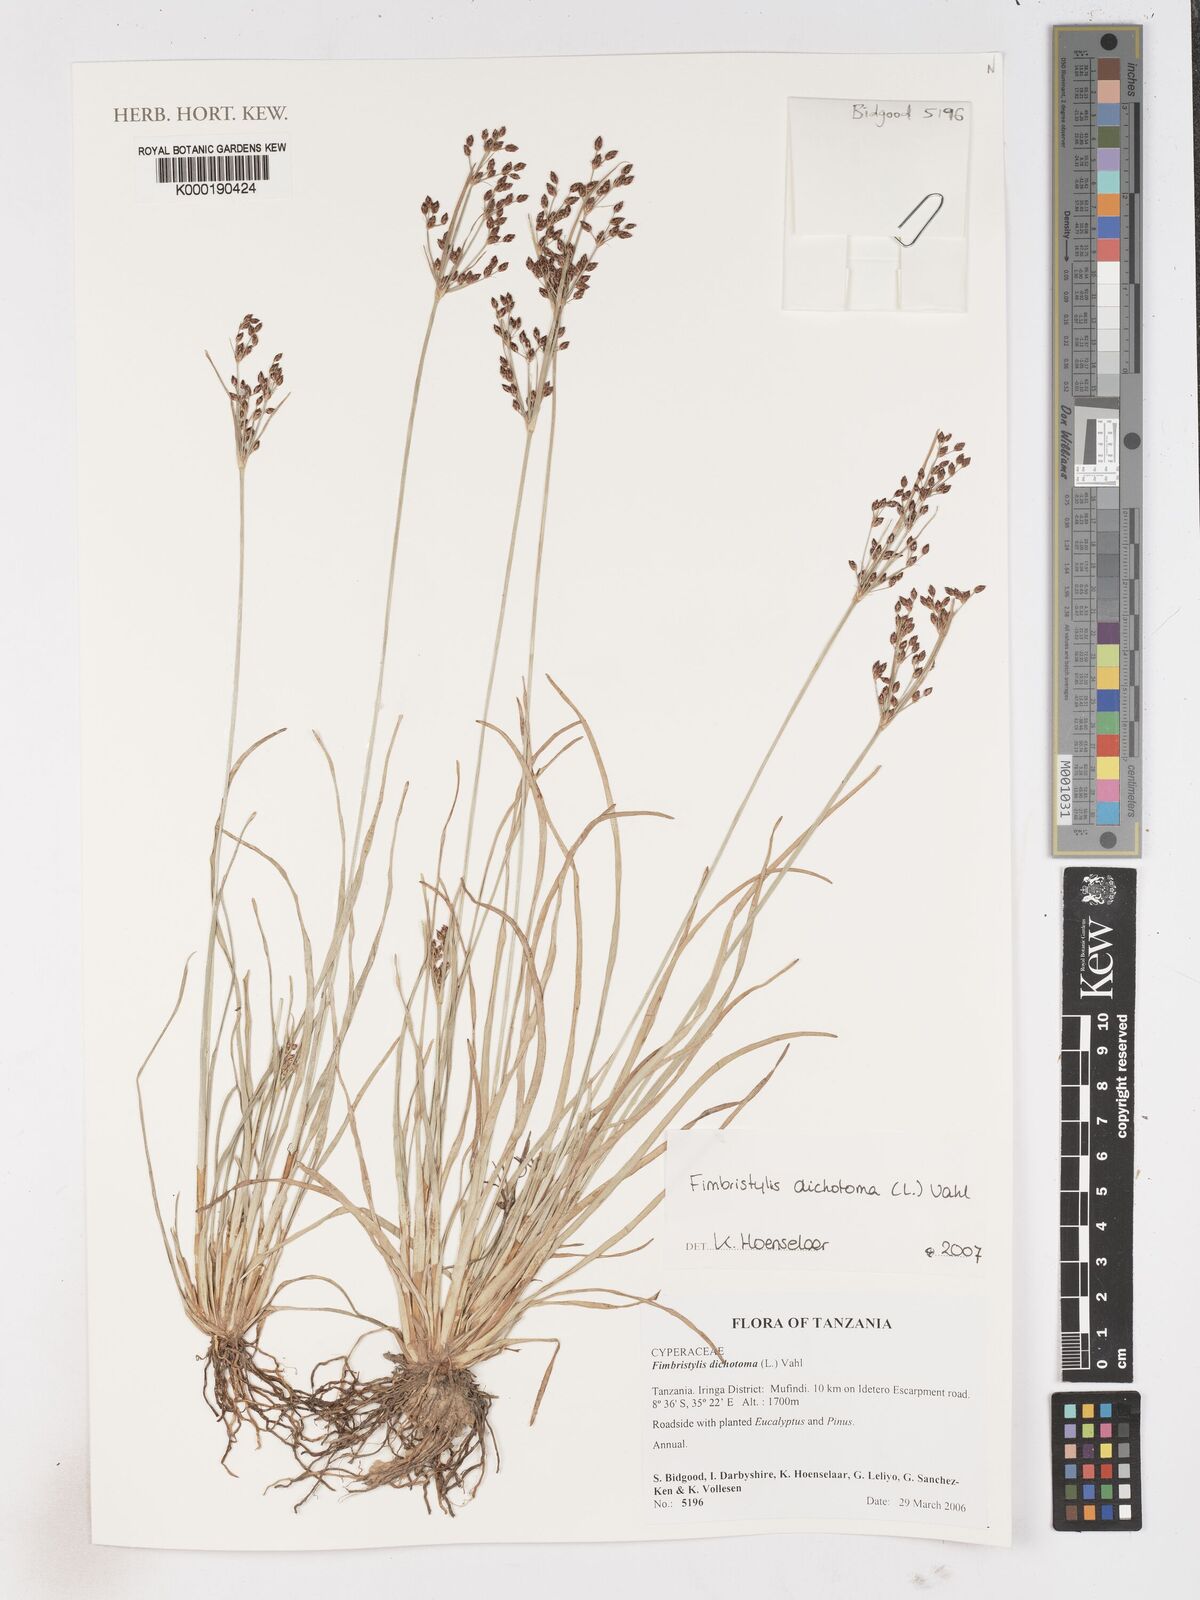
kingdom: Plantae
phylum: Tracheophyta
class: Liliopsida
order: Poales
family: Cyperaceae
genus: Fimbristylis
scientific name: Fimbristylis dichotoma
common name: Forked fimbry
